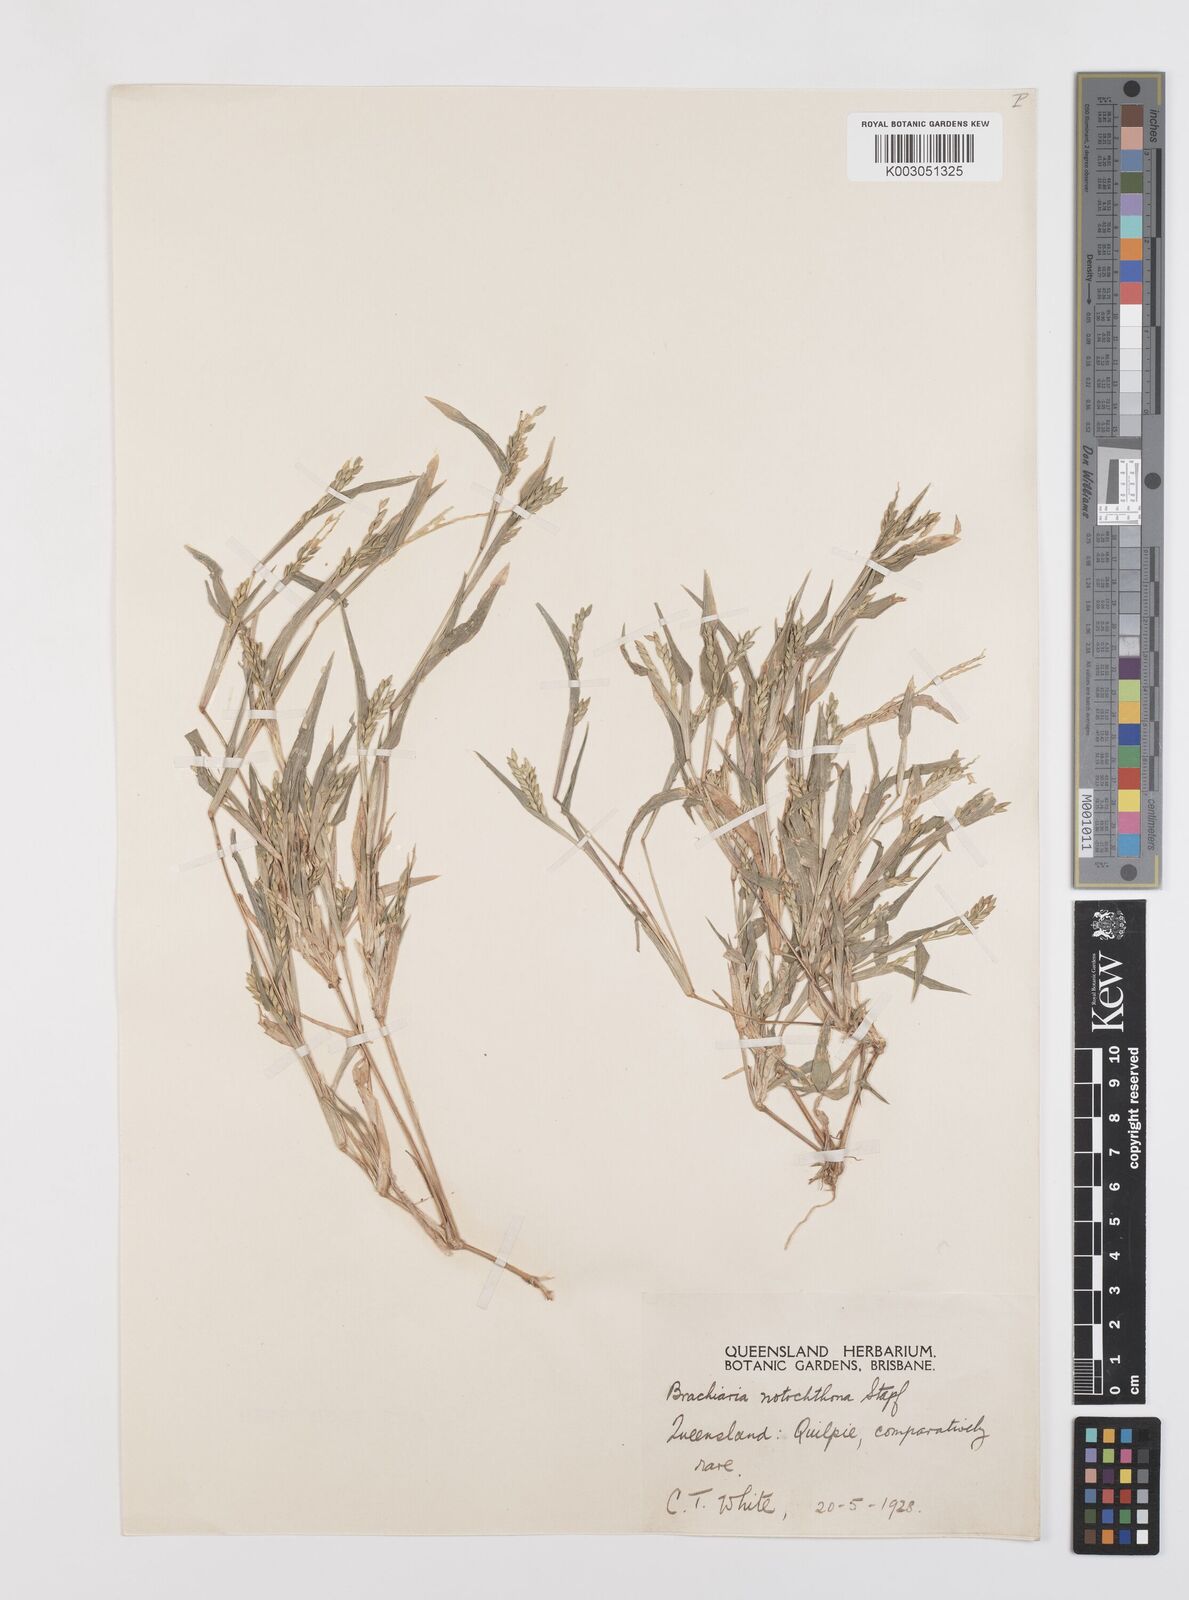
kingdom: Plantae
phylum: Tracheophyta
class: Liliopsida
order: Poales
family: Poaceae
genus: Urochloa
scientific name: Urochloa notochthona
